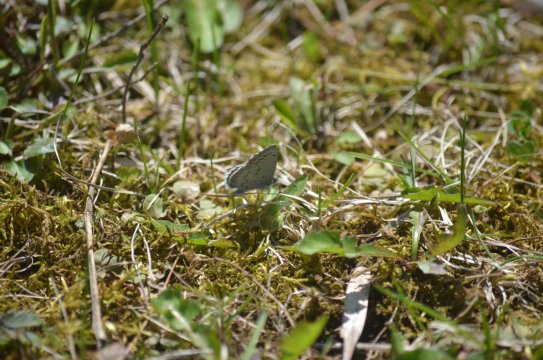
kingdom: Animalia
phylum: Arthropoda
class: Insecta
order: Lepidoptera
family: Lycaenidae
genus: Celastrina
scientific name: Celastrina lucia
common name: Northern Spring Azure
